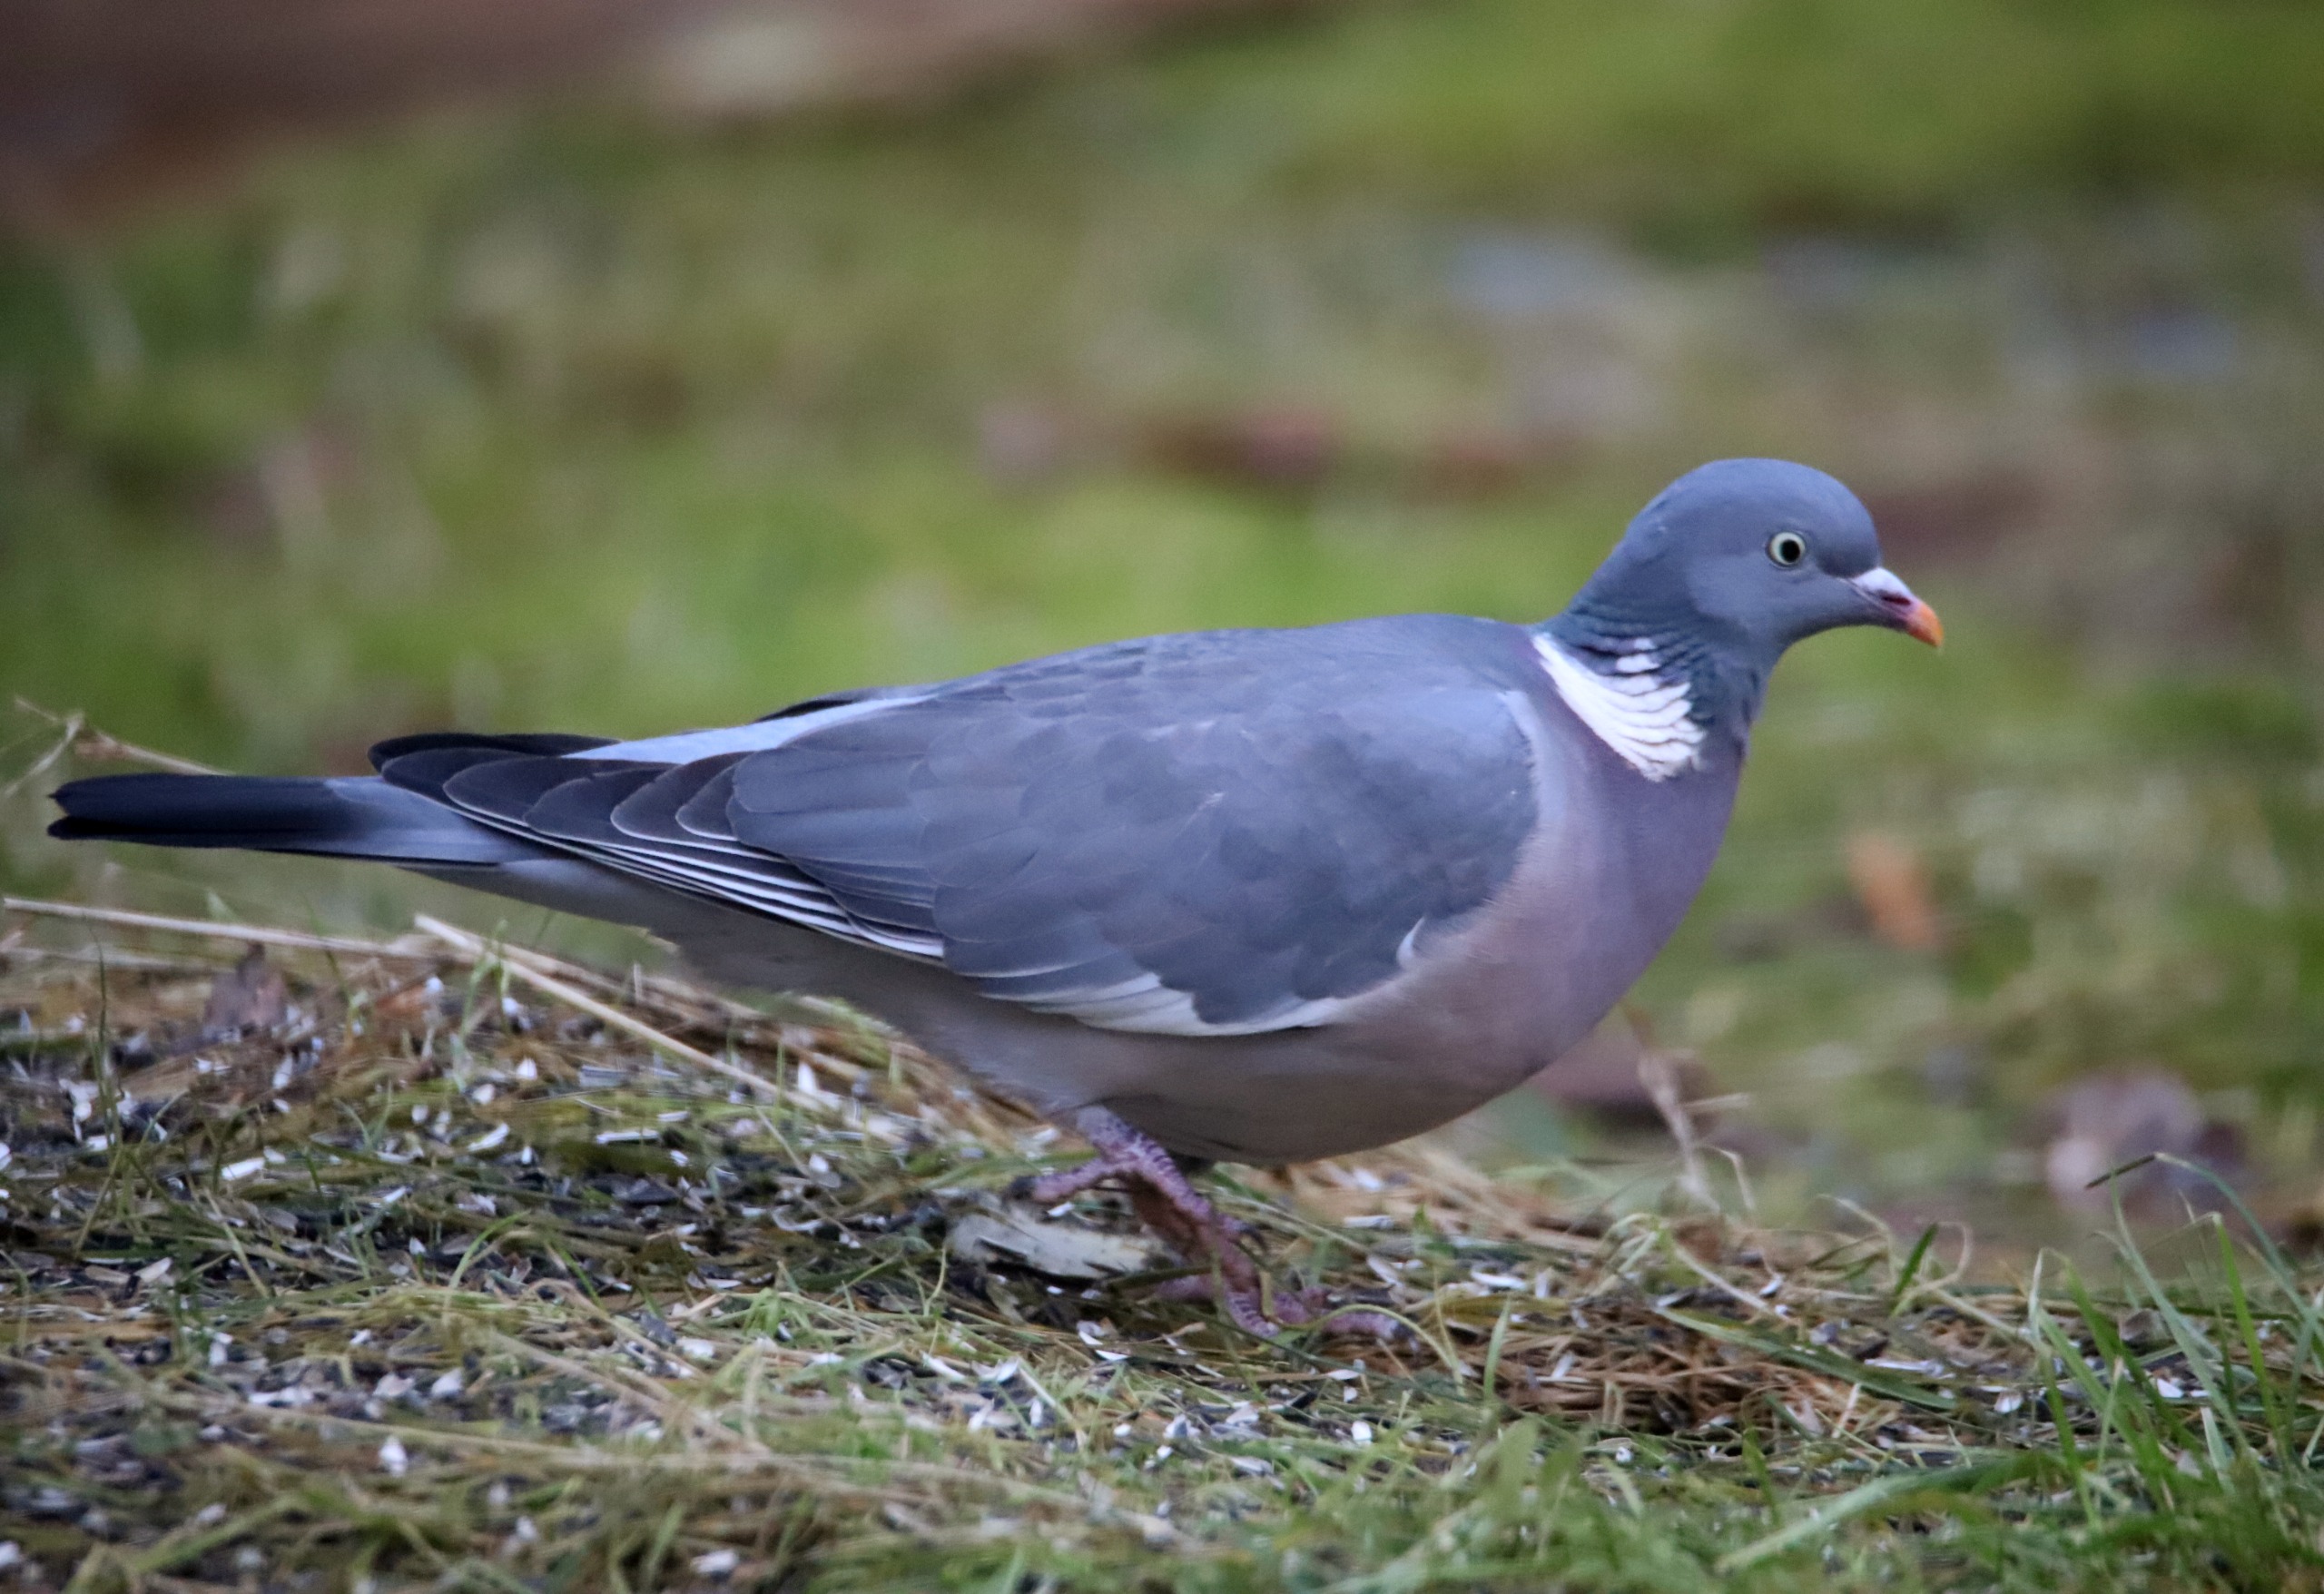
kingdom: Animalia
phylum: Chordata
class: Aves
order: Columbiformes
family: Columbidae
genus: Columba
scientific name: Columba palumbus
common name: Ringdue
